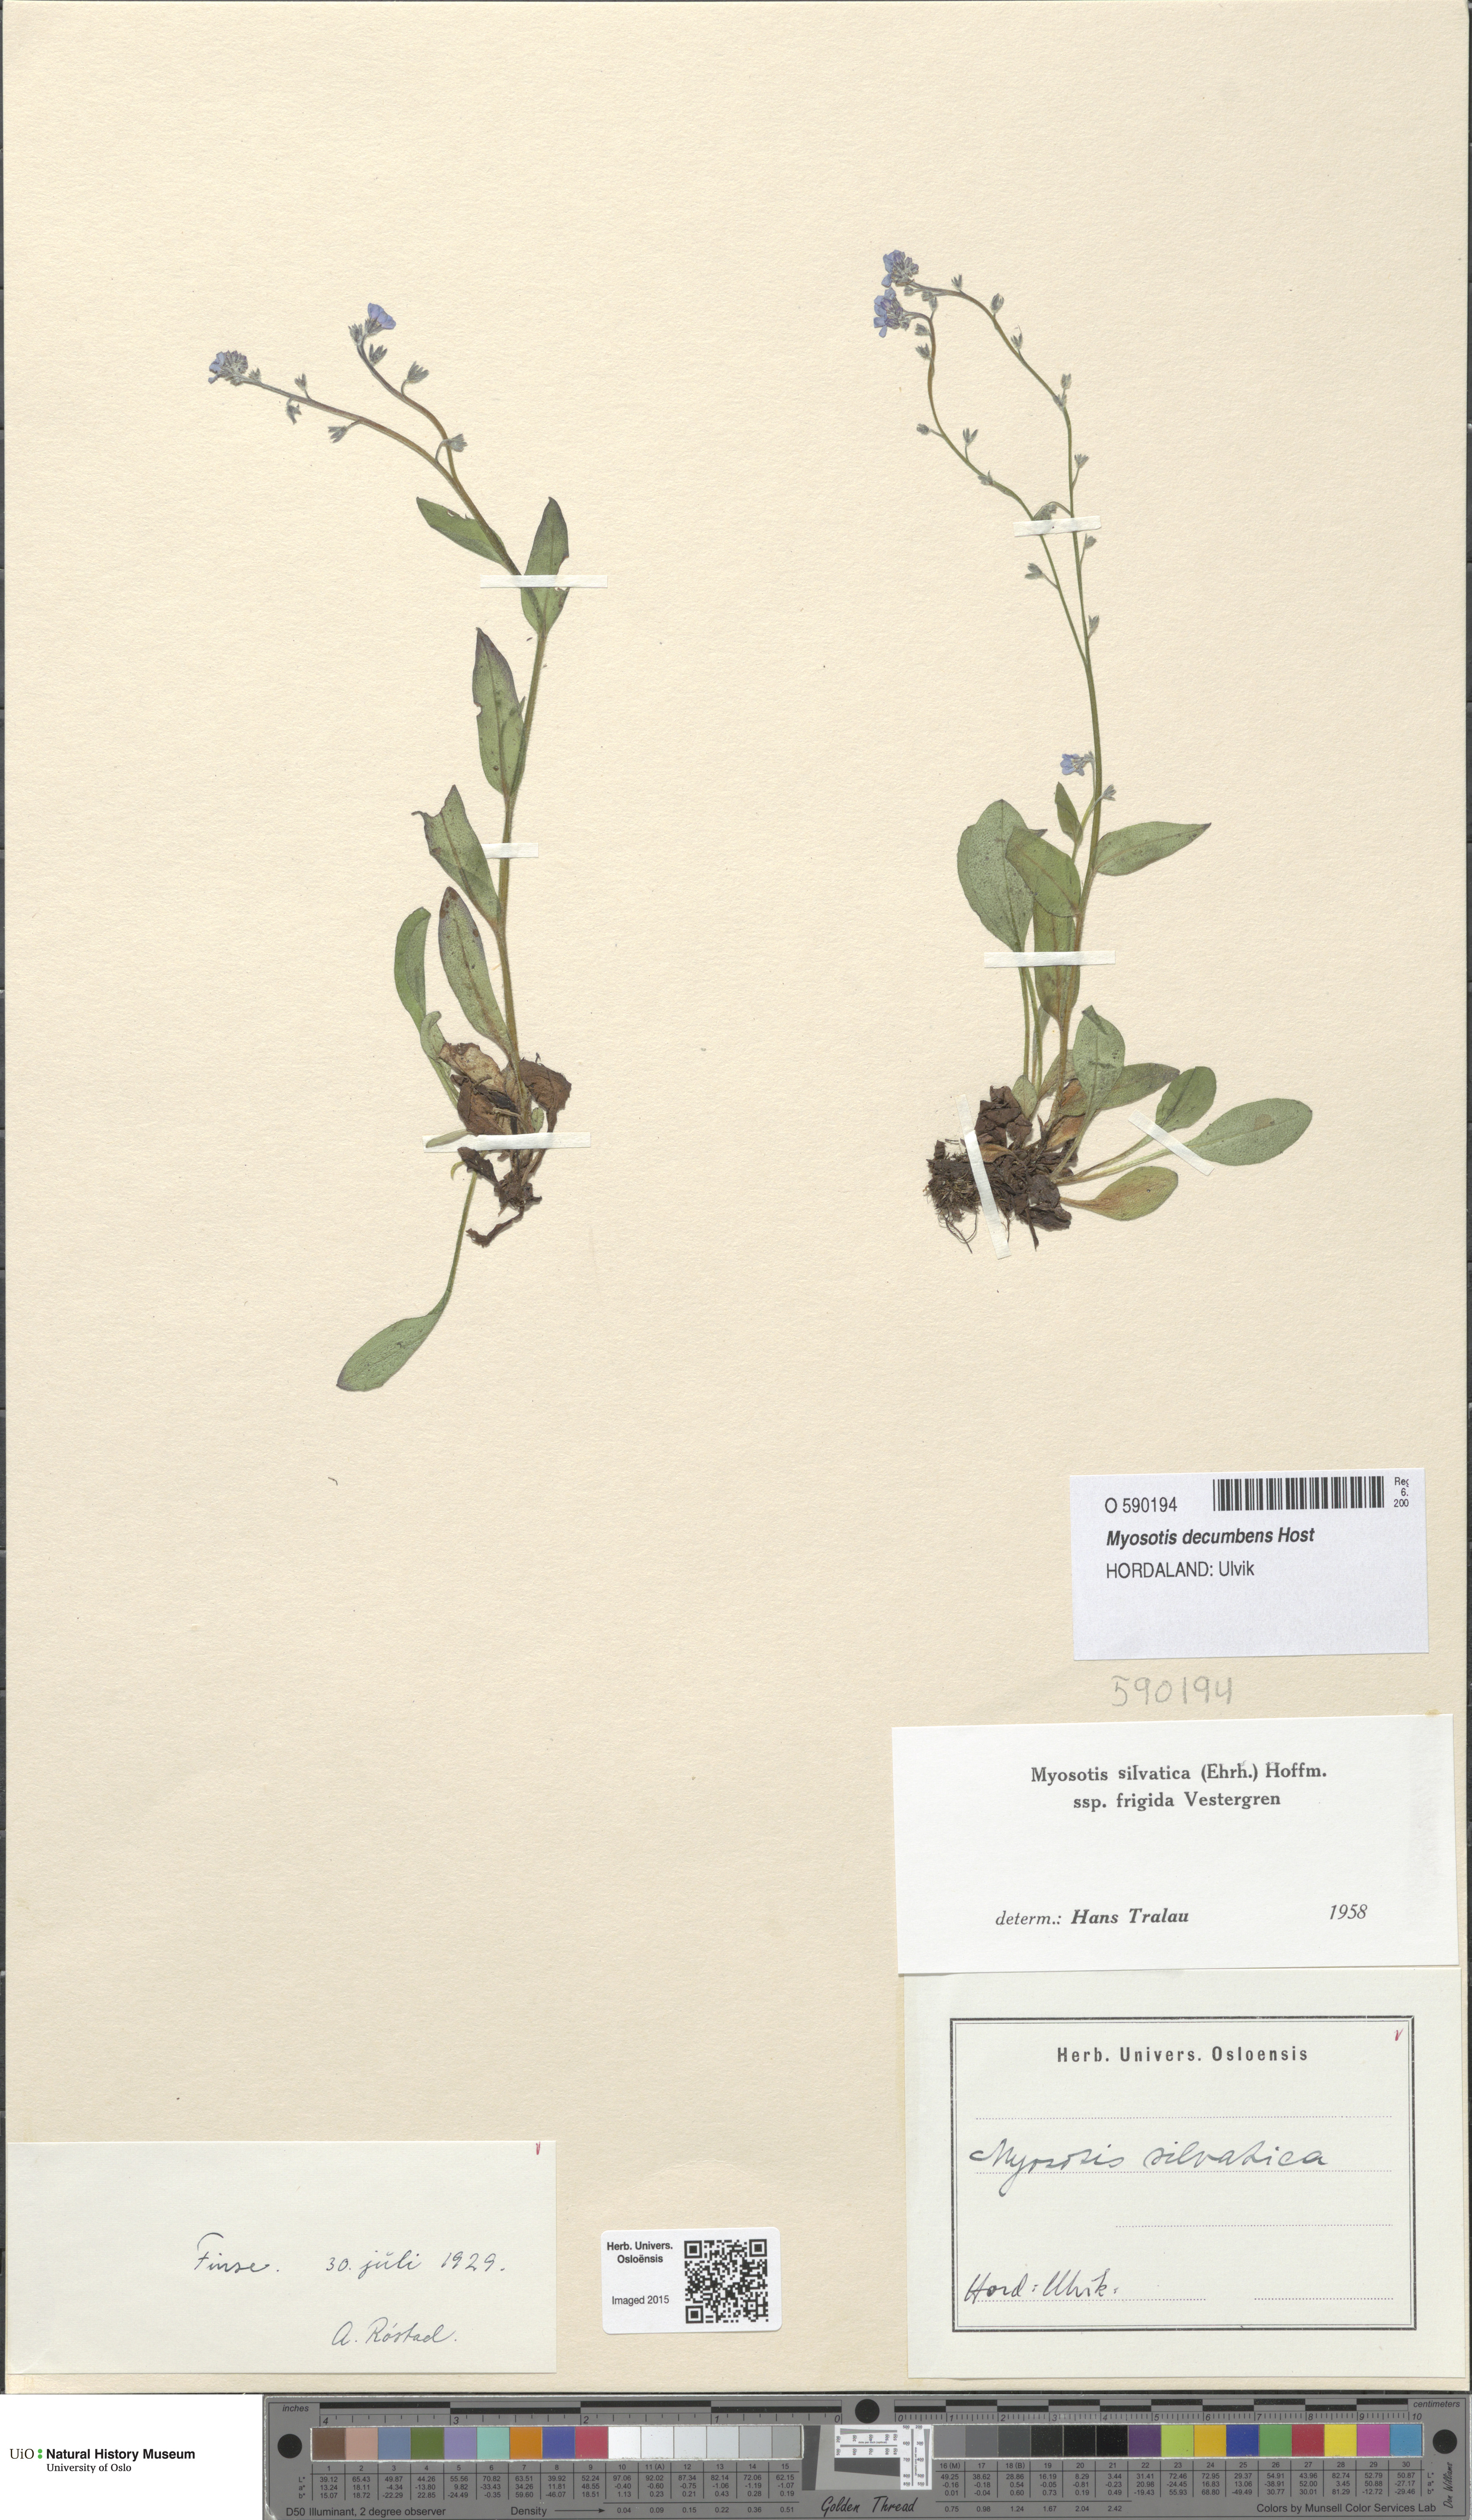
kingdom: Plantae
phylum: Tracheophyta
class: Magnoliopsida
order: Boraginales
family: Boraginaceae
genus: Myosotis
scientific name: Myosotis decumbens
